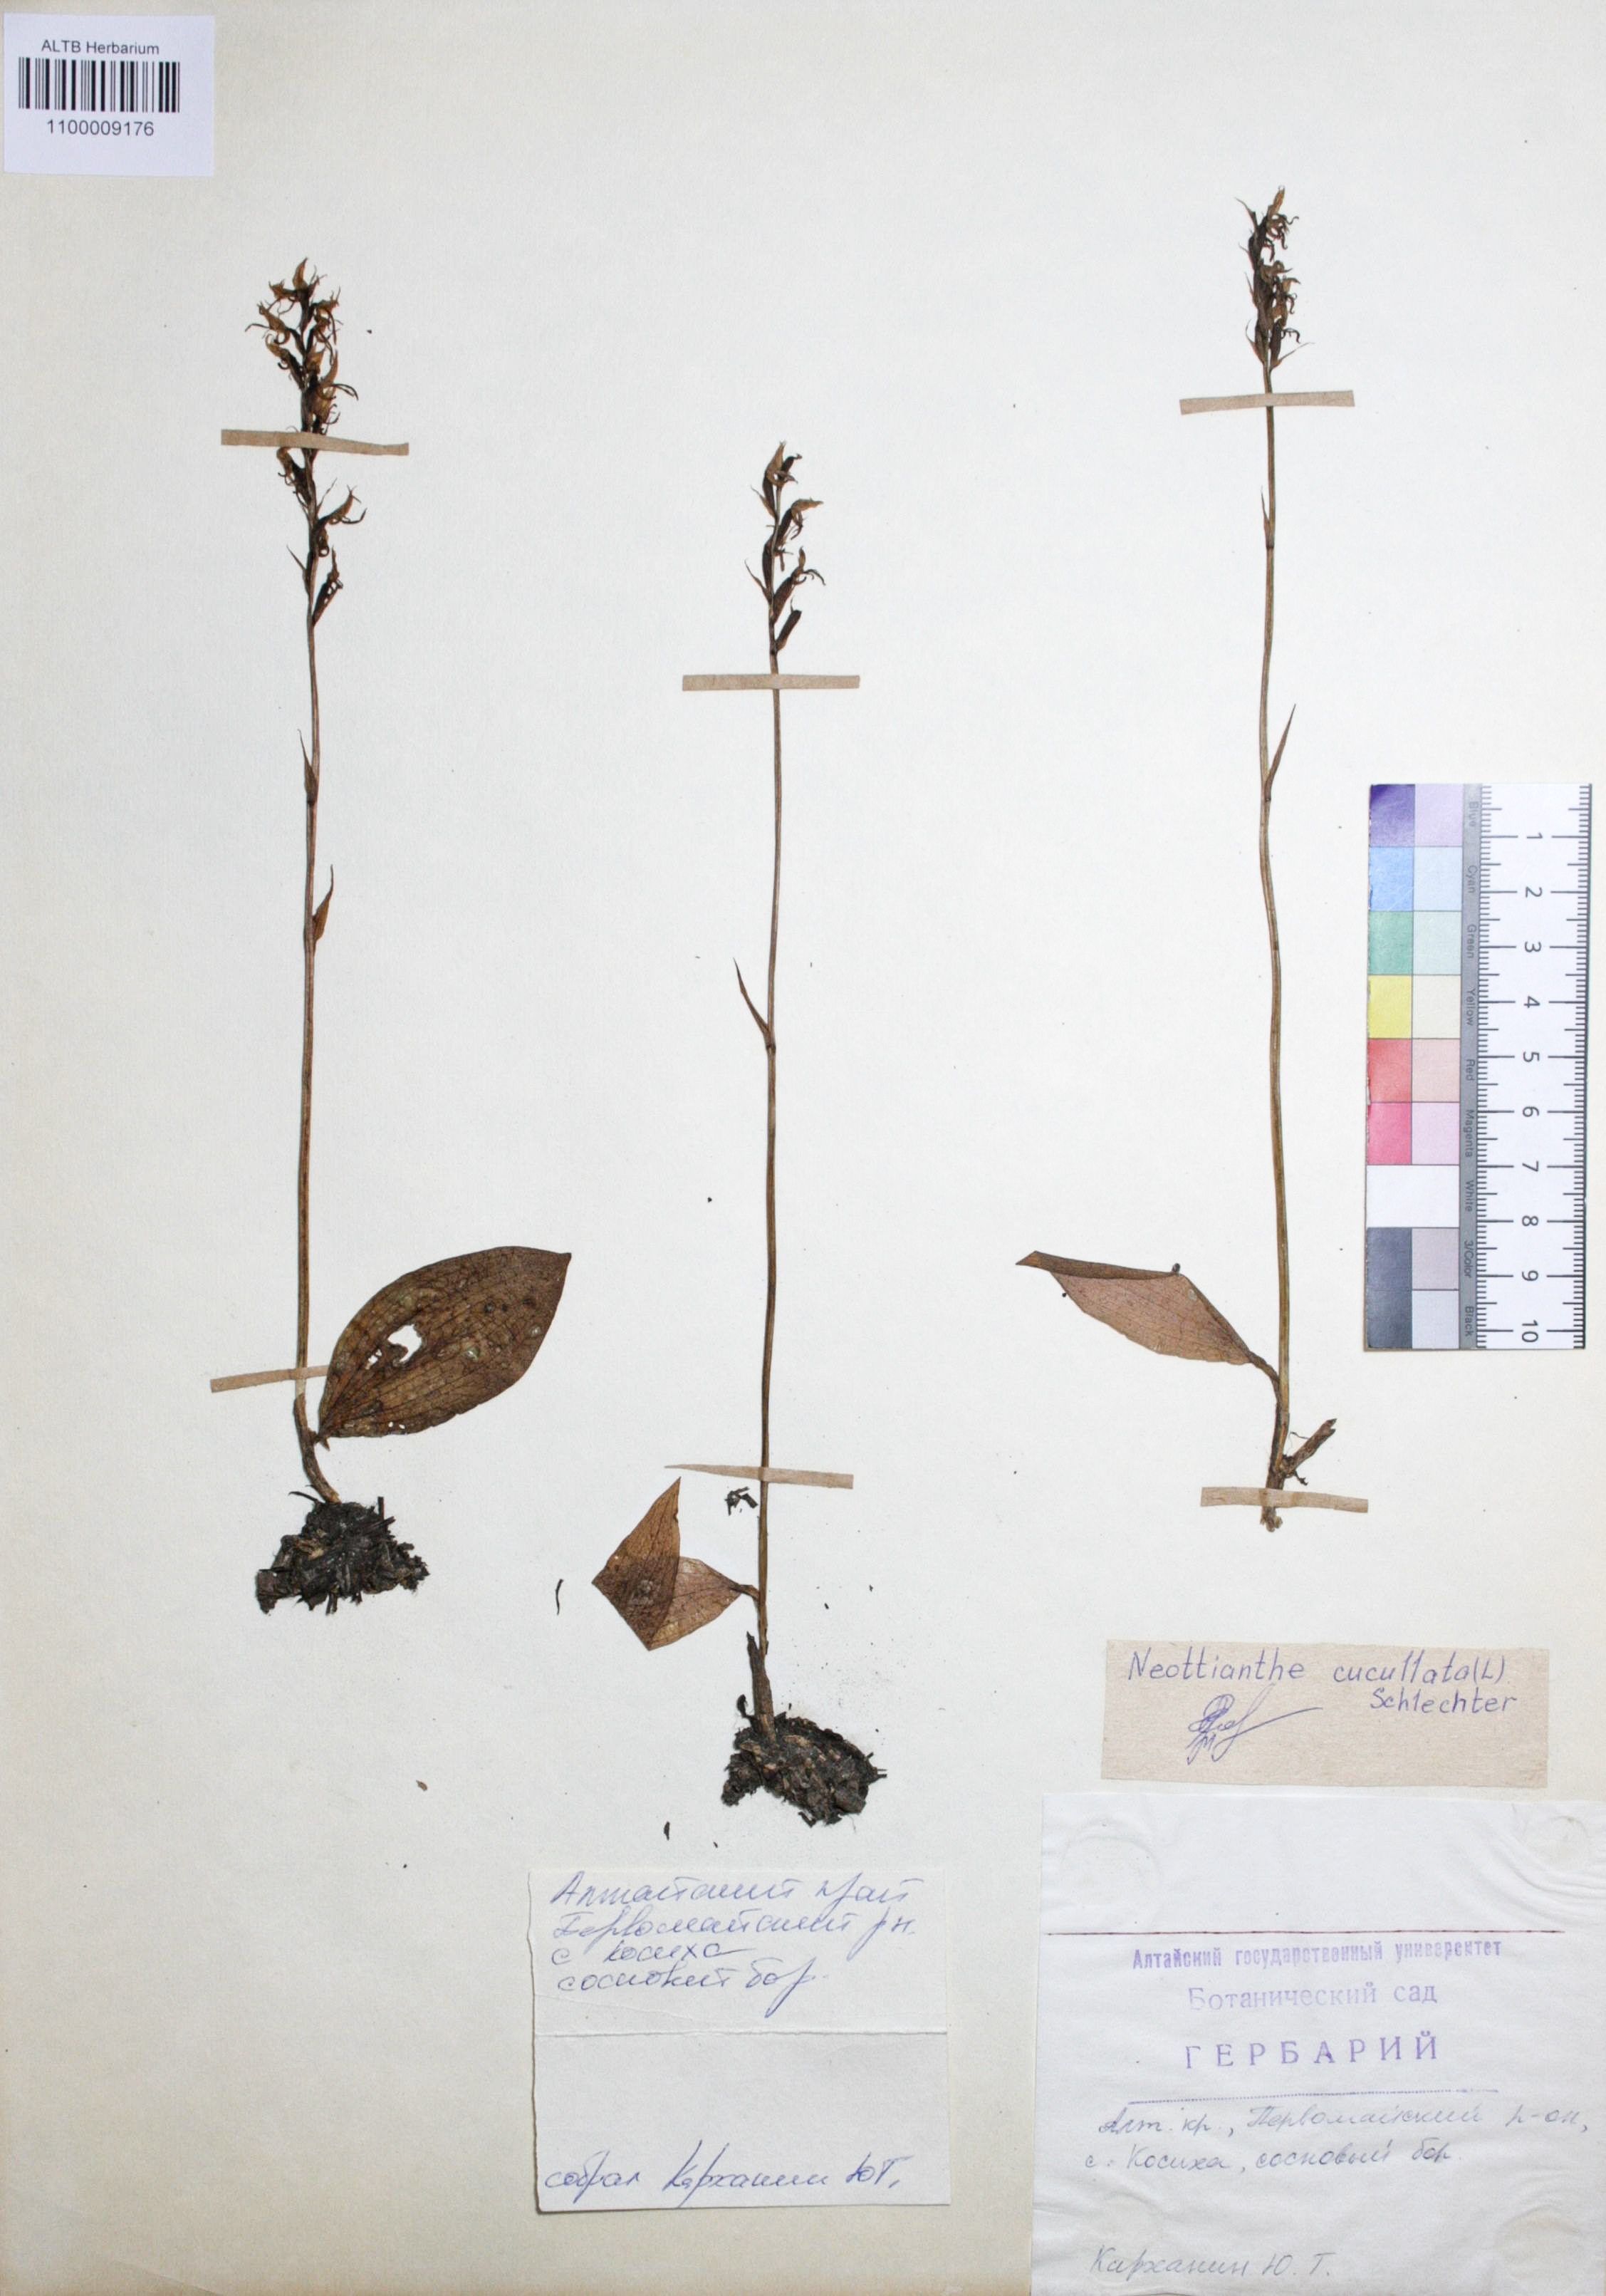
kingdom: Plantae
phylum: Tracheophyta
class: Liliopsida
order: Asparagales
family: Orchidaceae
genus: Hemipilia
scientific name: Hemipilia cucullata
